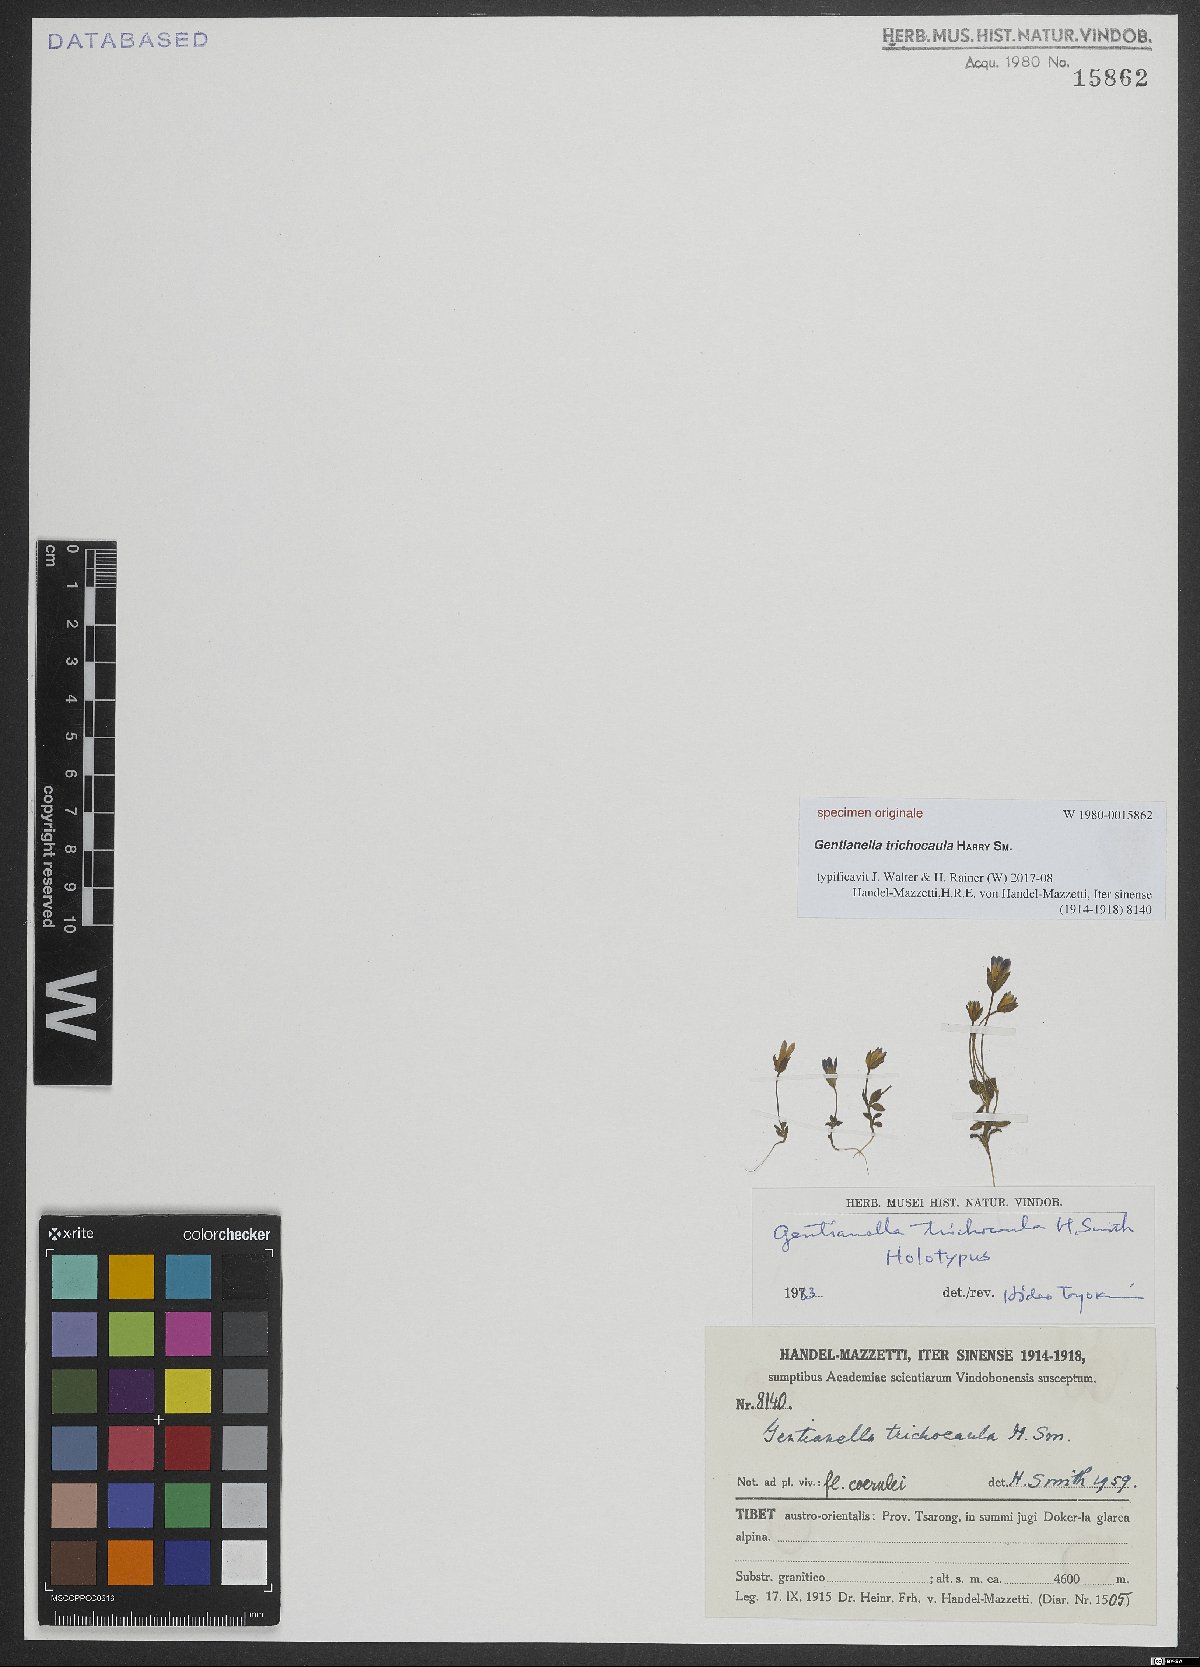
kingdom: Plantae
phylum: Tracheophyta
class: Magnoliopsida
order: Gentianales
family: Gentianaceae
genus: Gentianella
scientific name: Gentianella
